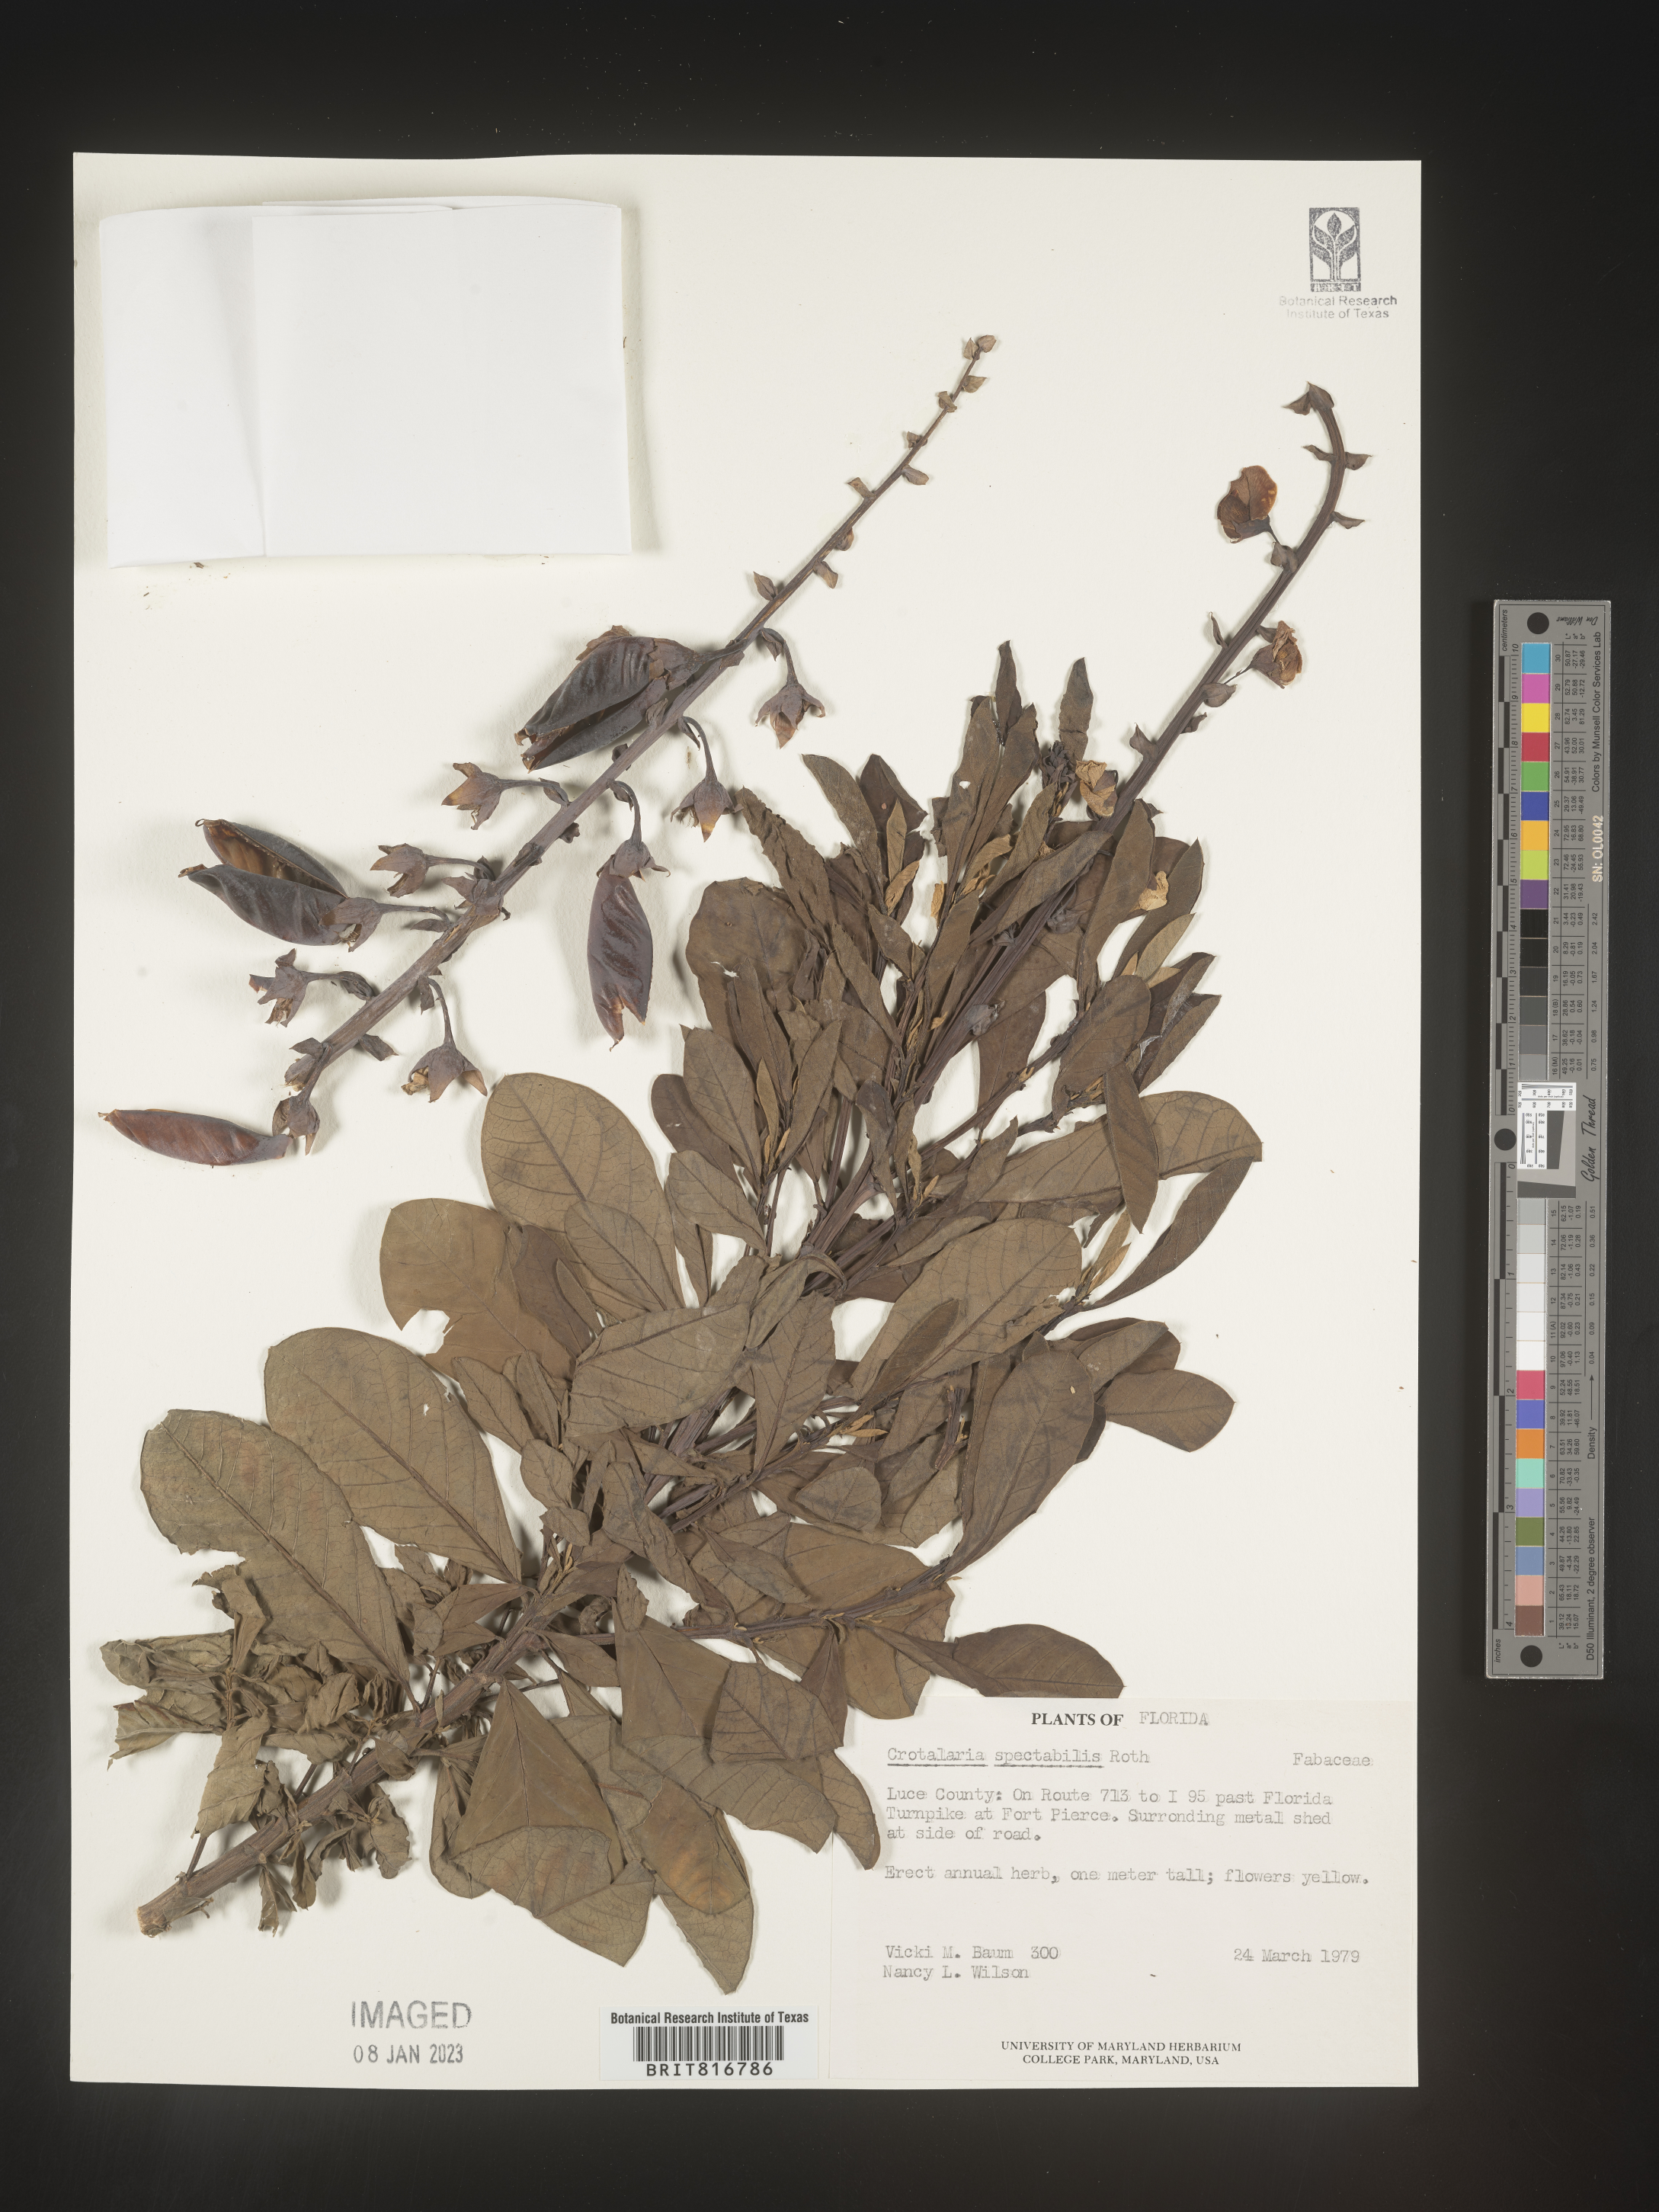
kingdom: Plantae
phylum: Tracheophyta
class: Magnoliopsida
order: Fabales
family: Fabaceae
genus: Crotalaria
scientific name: Crotalaria spectabilis
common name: Showy rattlebox
